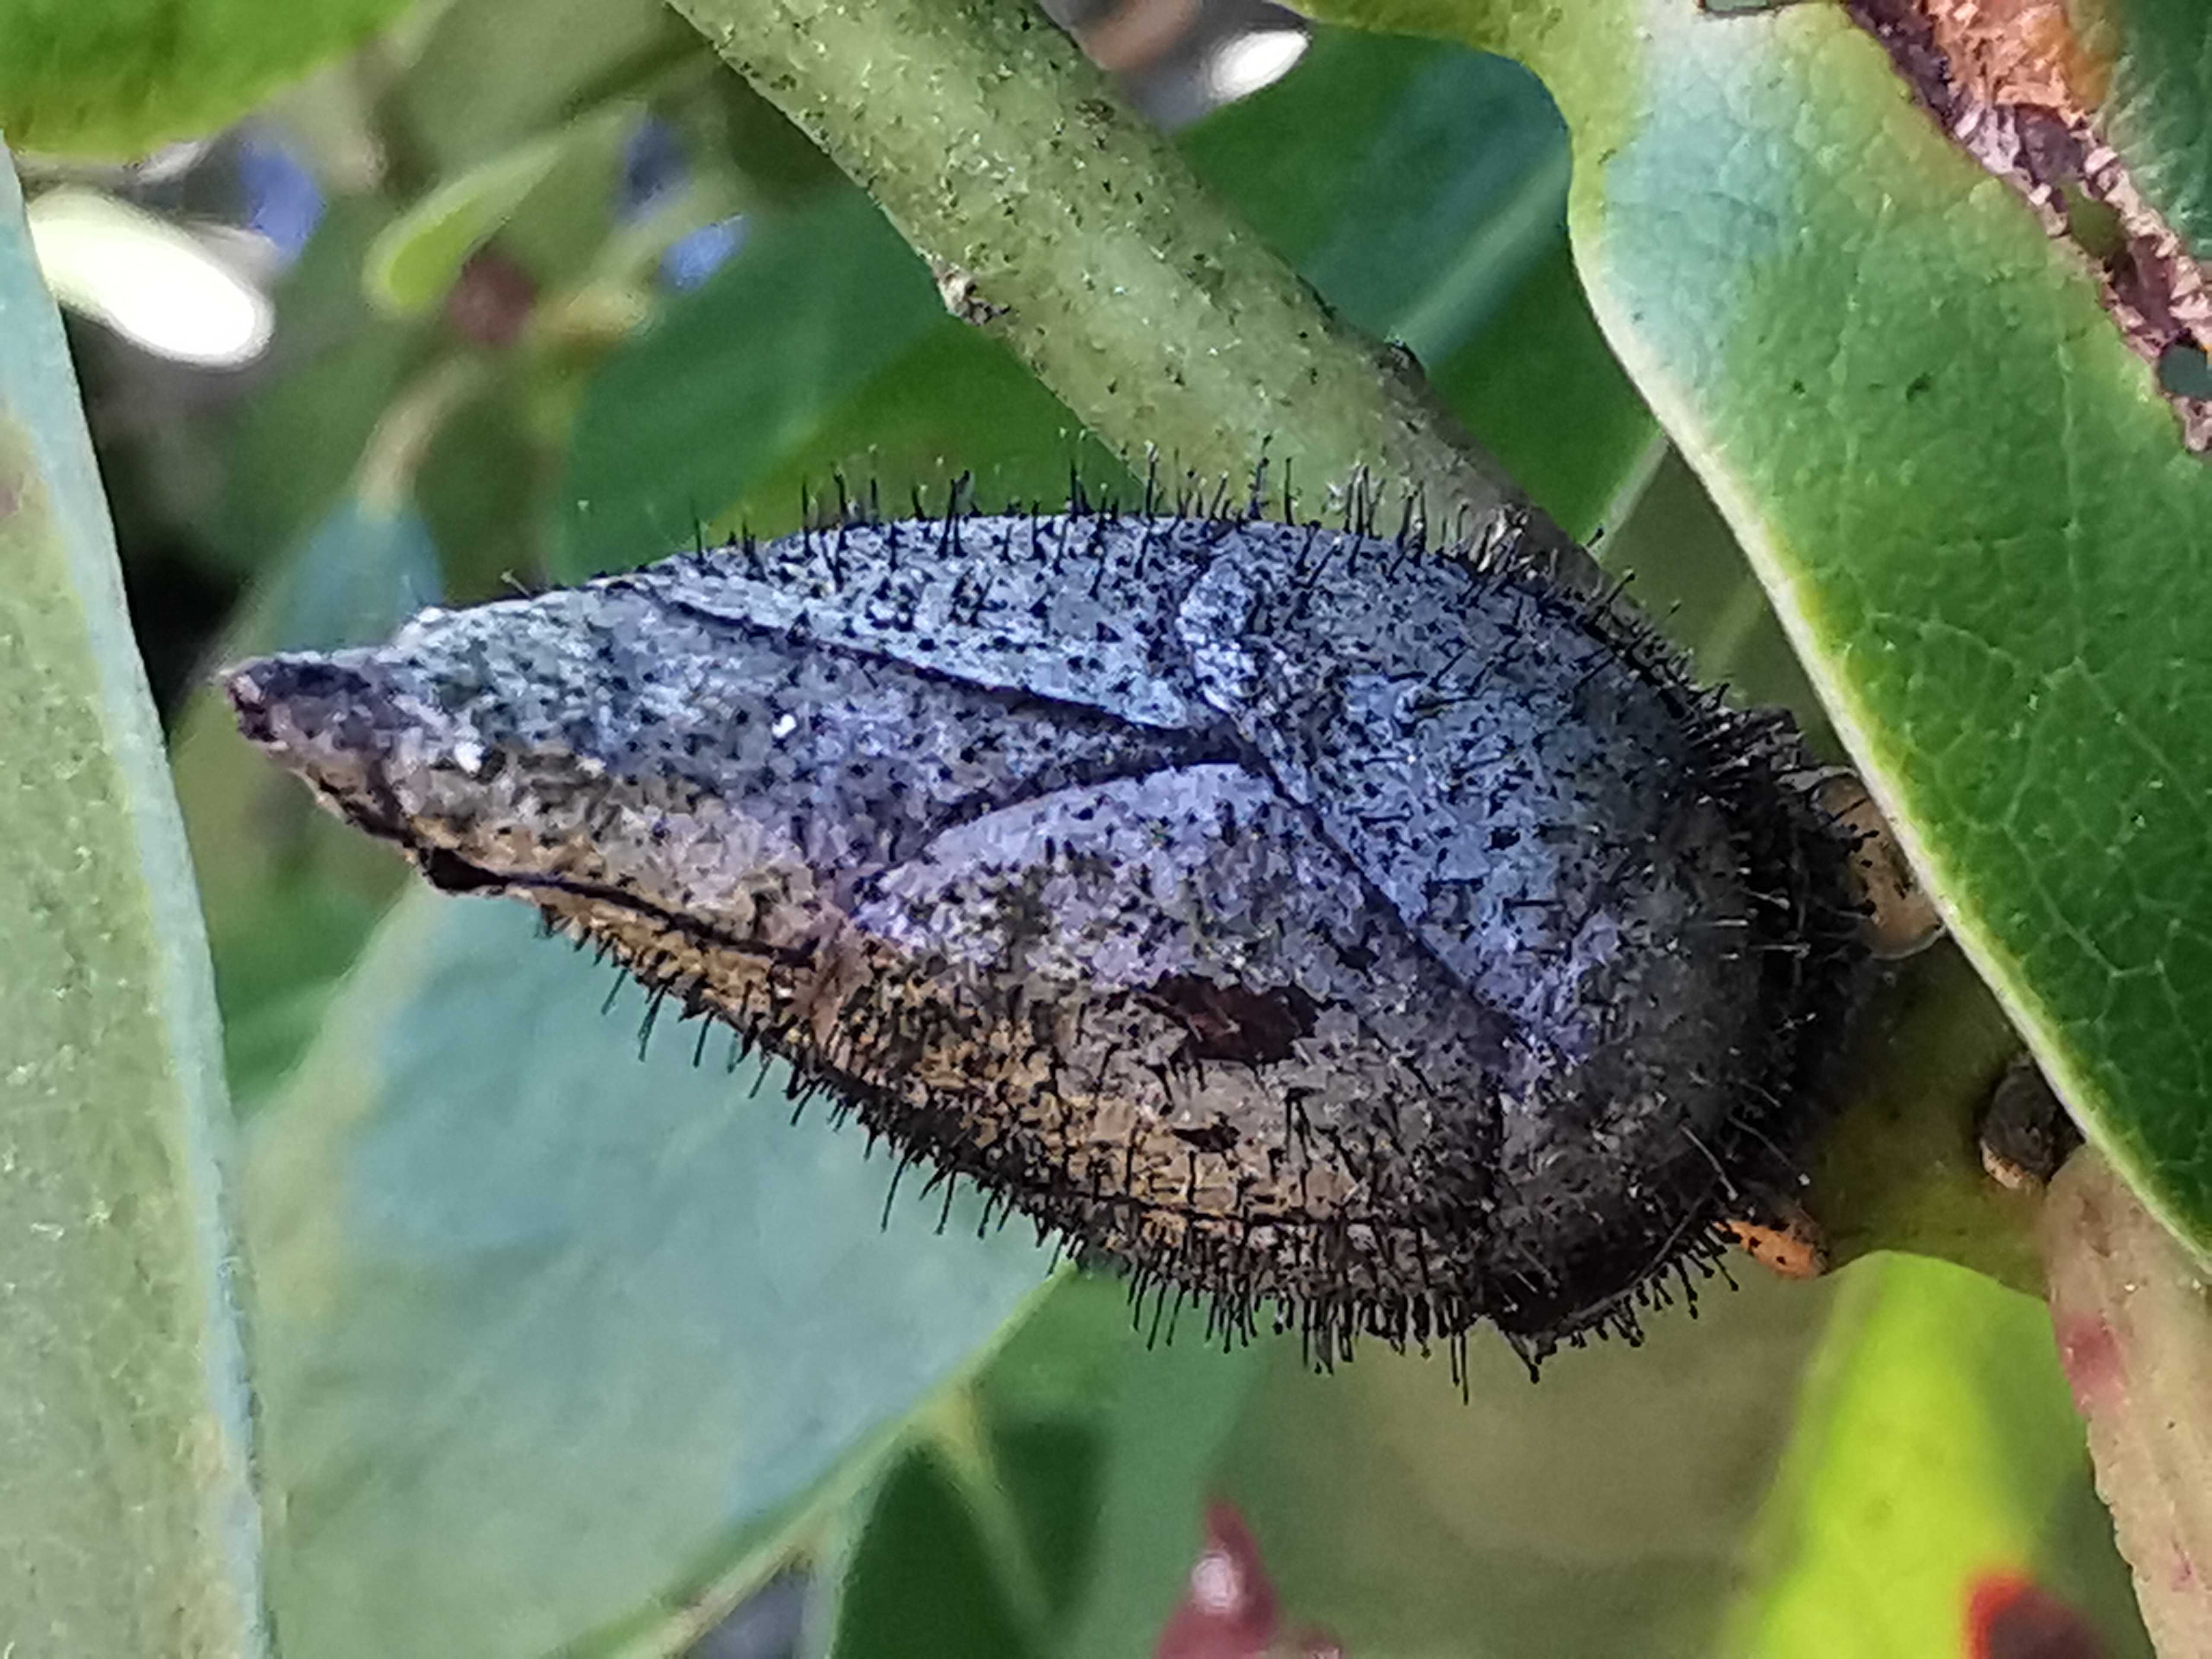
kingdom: Fungi
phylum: Ascomycota
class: Dothideomycetes
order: Pleosporales
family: Melanommataceae
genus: Seifertia
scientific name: Seifertia azaleae
